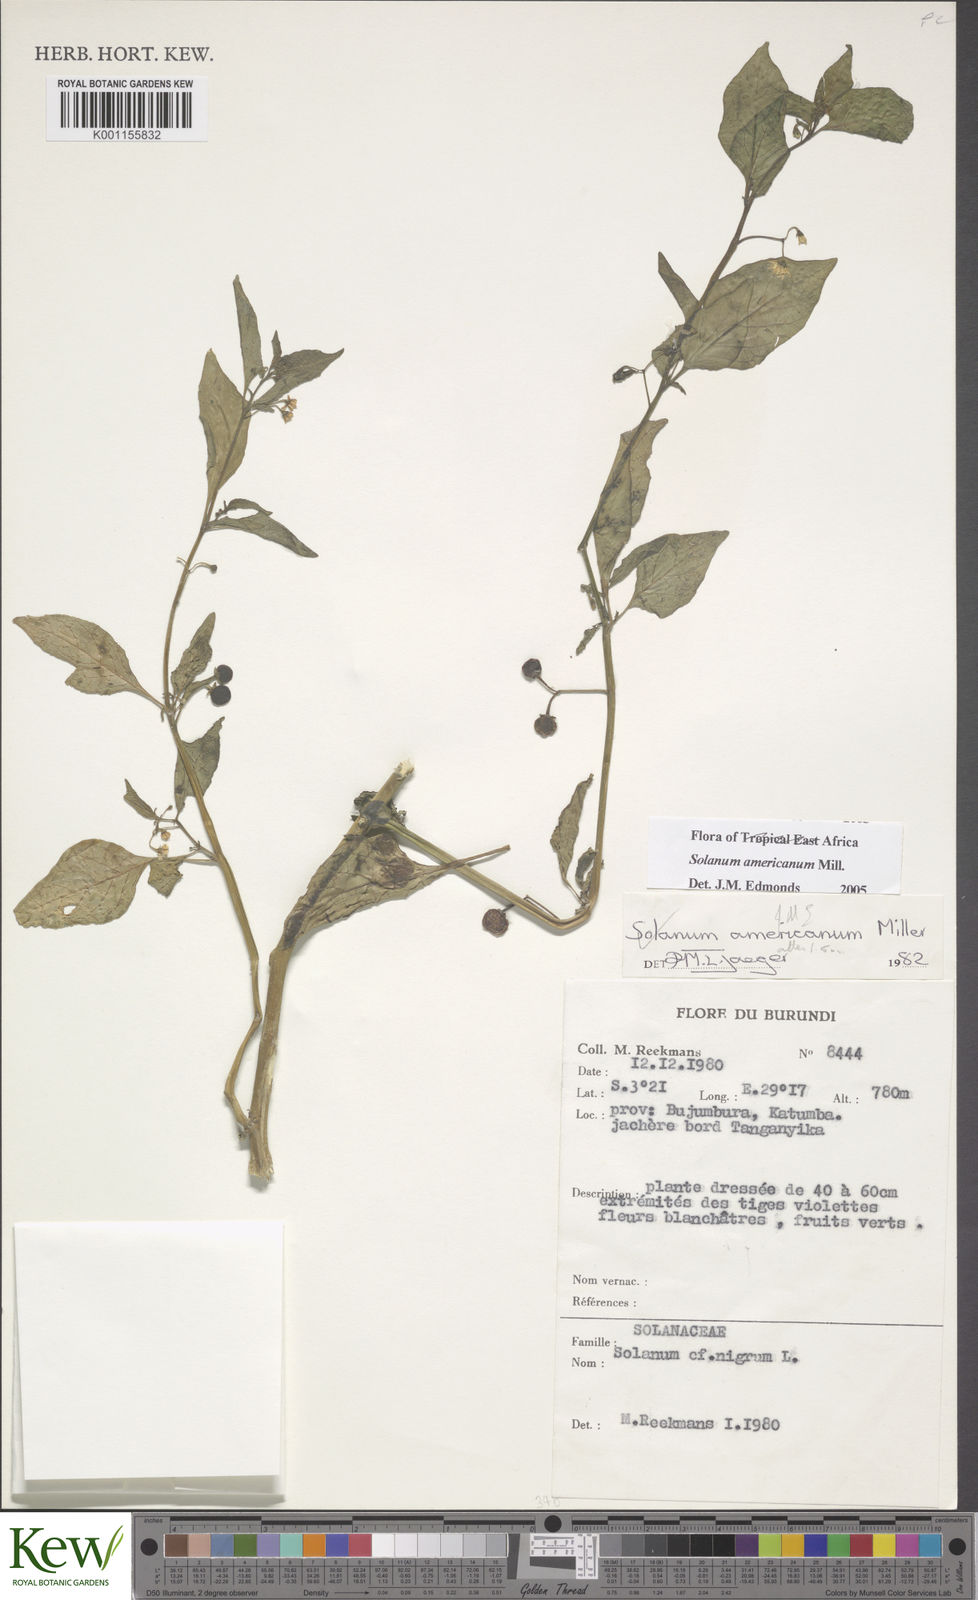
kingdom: Plantae
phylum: Tracheophyta
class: Magnoliopsida
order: Solanales
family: Solanaceae
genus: Solanum
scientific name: Solanum scabrum
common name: Garden-huckleberry
